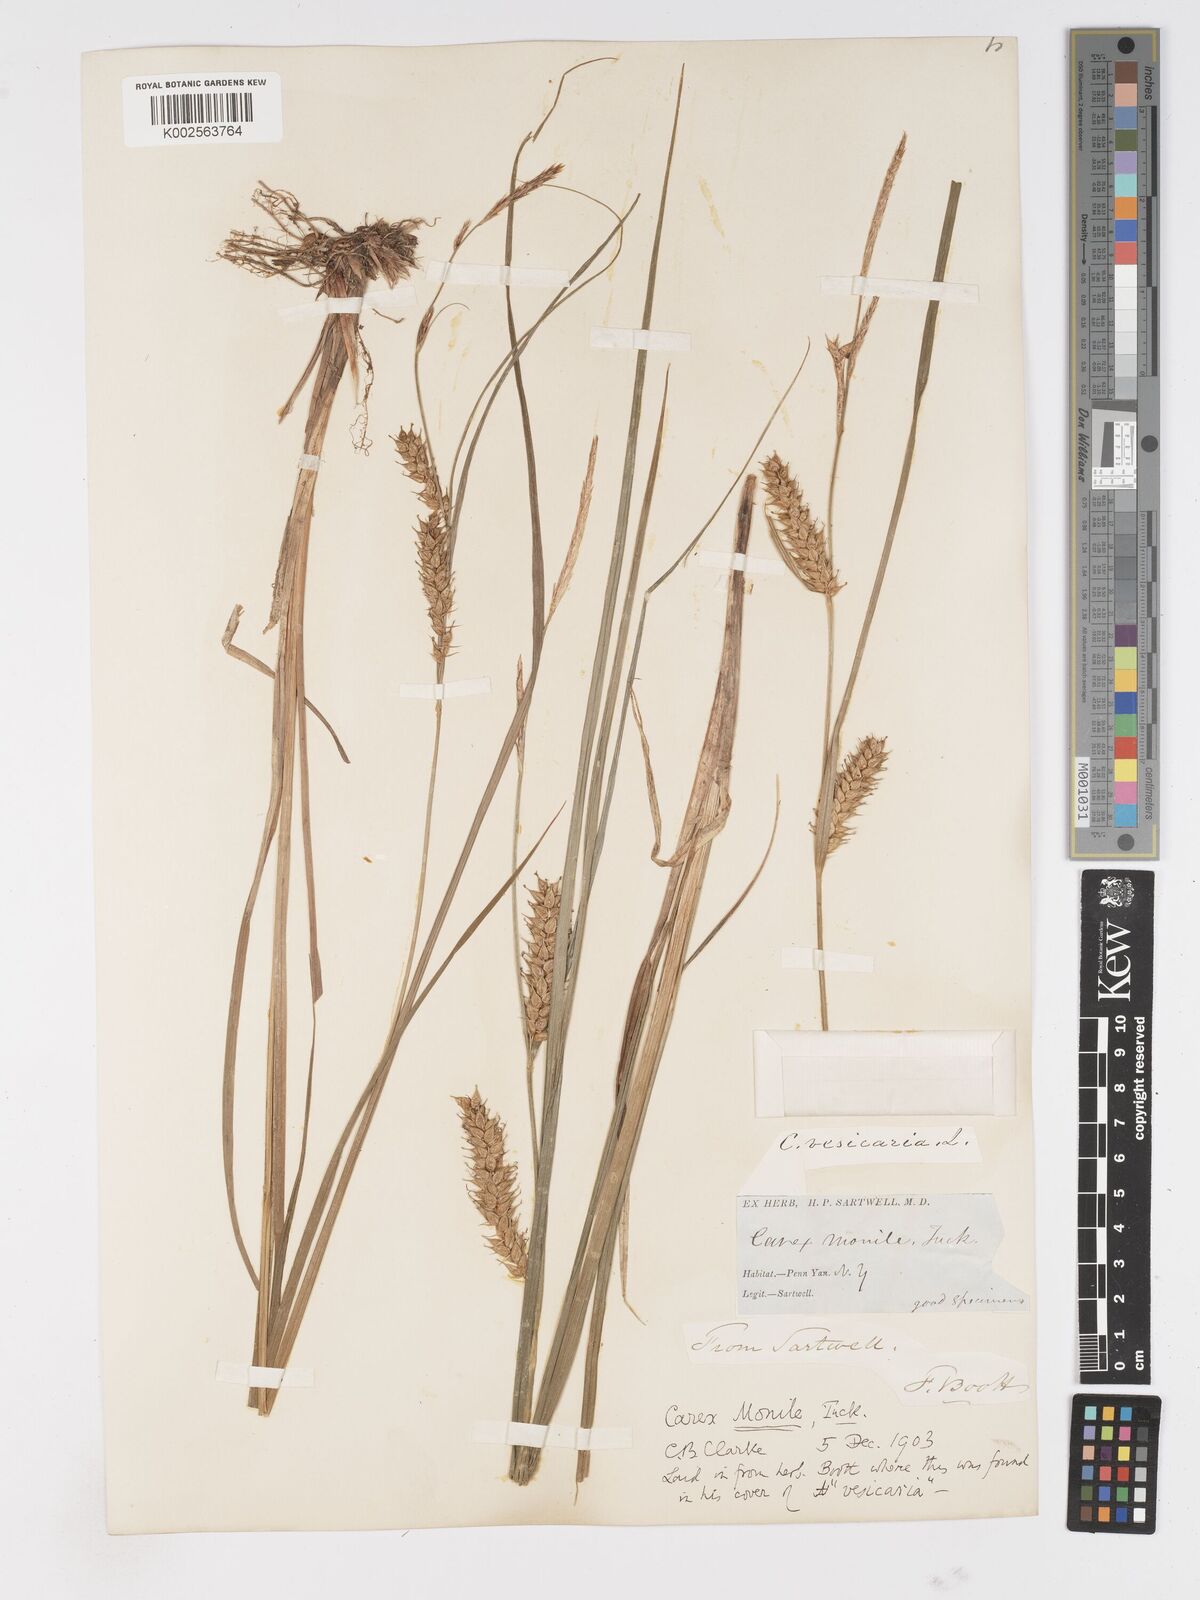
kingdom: Plantae
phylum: Tracheophyta
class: Liliopsida
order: Poales
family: Cyperaceae
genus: Carex
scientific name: Carex vesicaria
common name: Bladder-sedge
